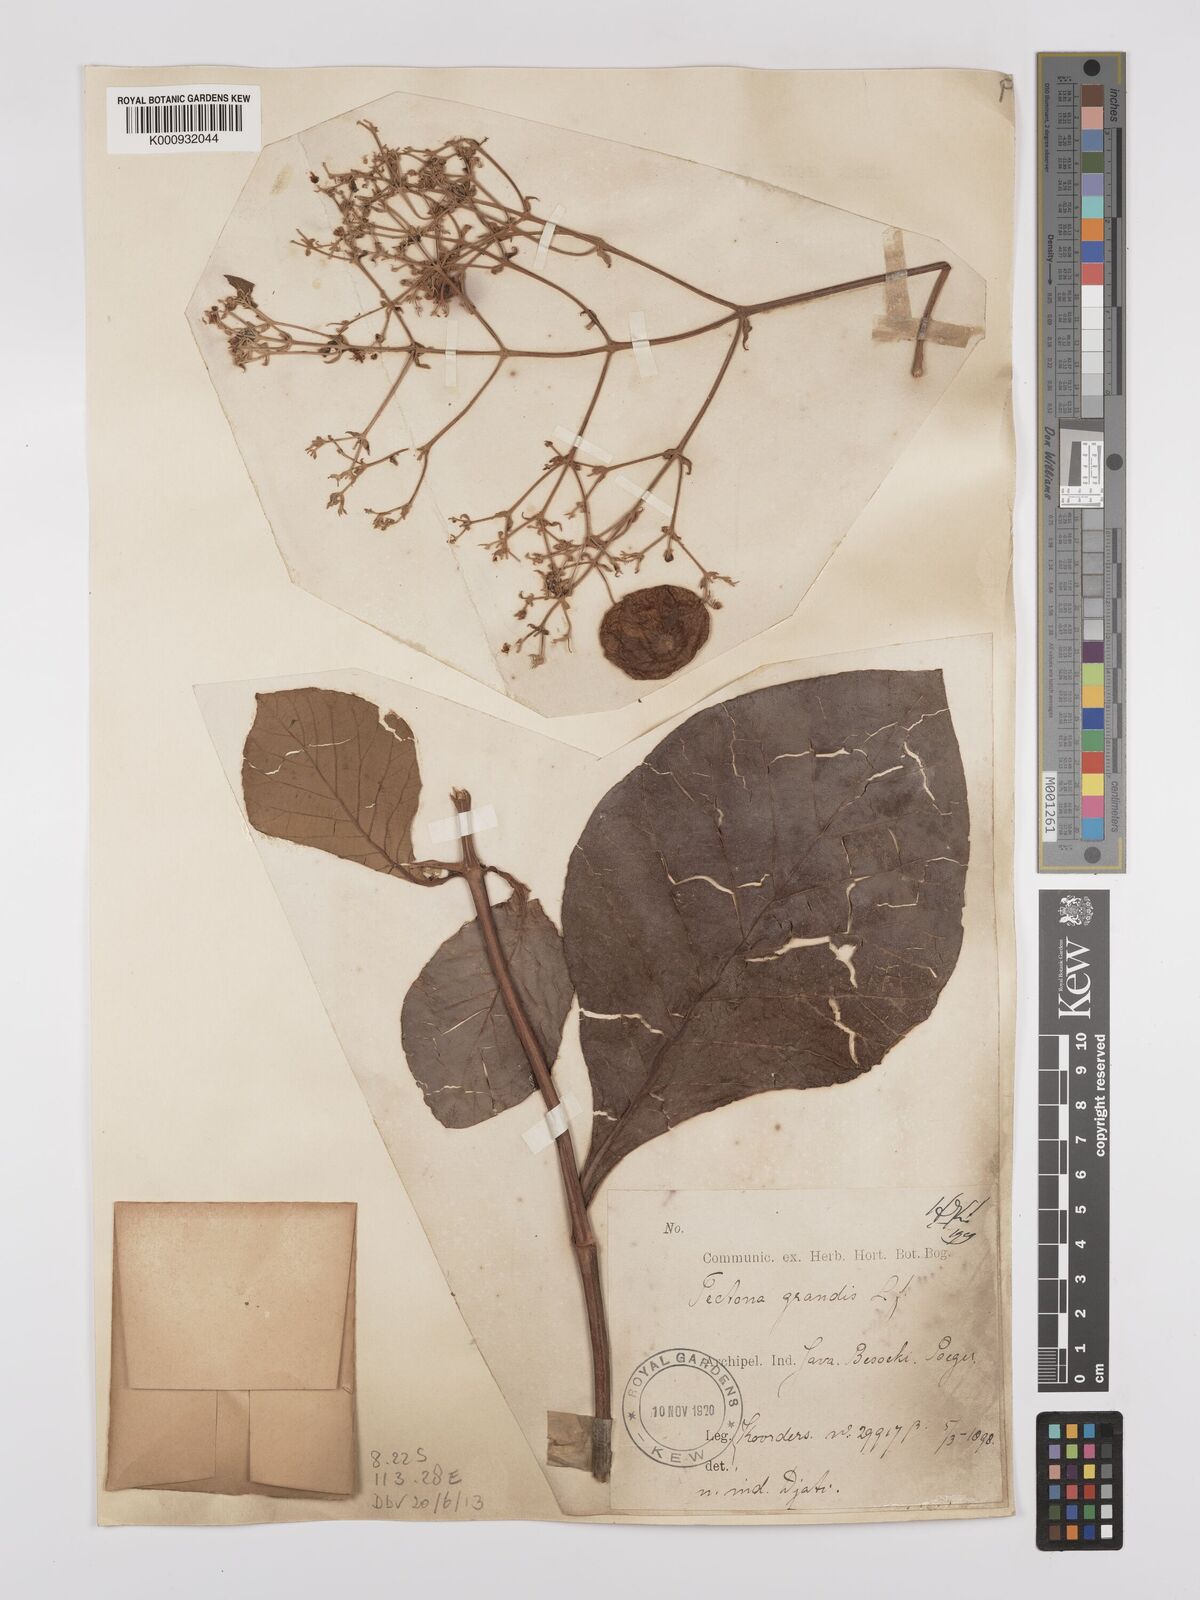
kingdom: Plantae
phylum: Tracheophyta
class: Magnoliopsida
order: Lamiales
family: Lamiaceae
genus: Tectona
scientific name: Tectona grandis
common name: Teak
